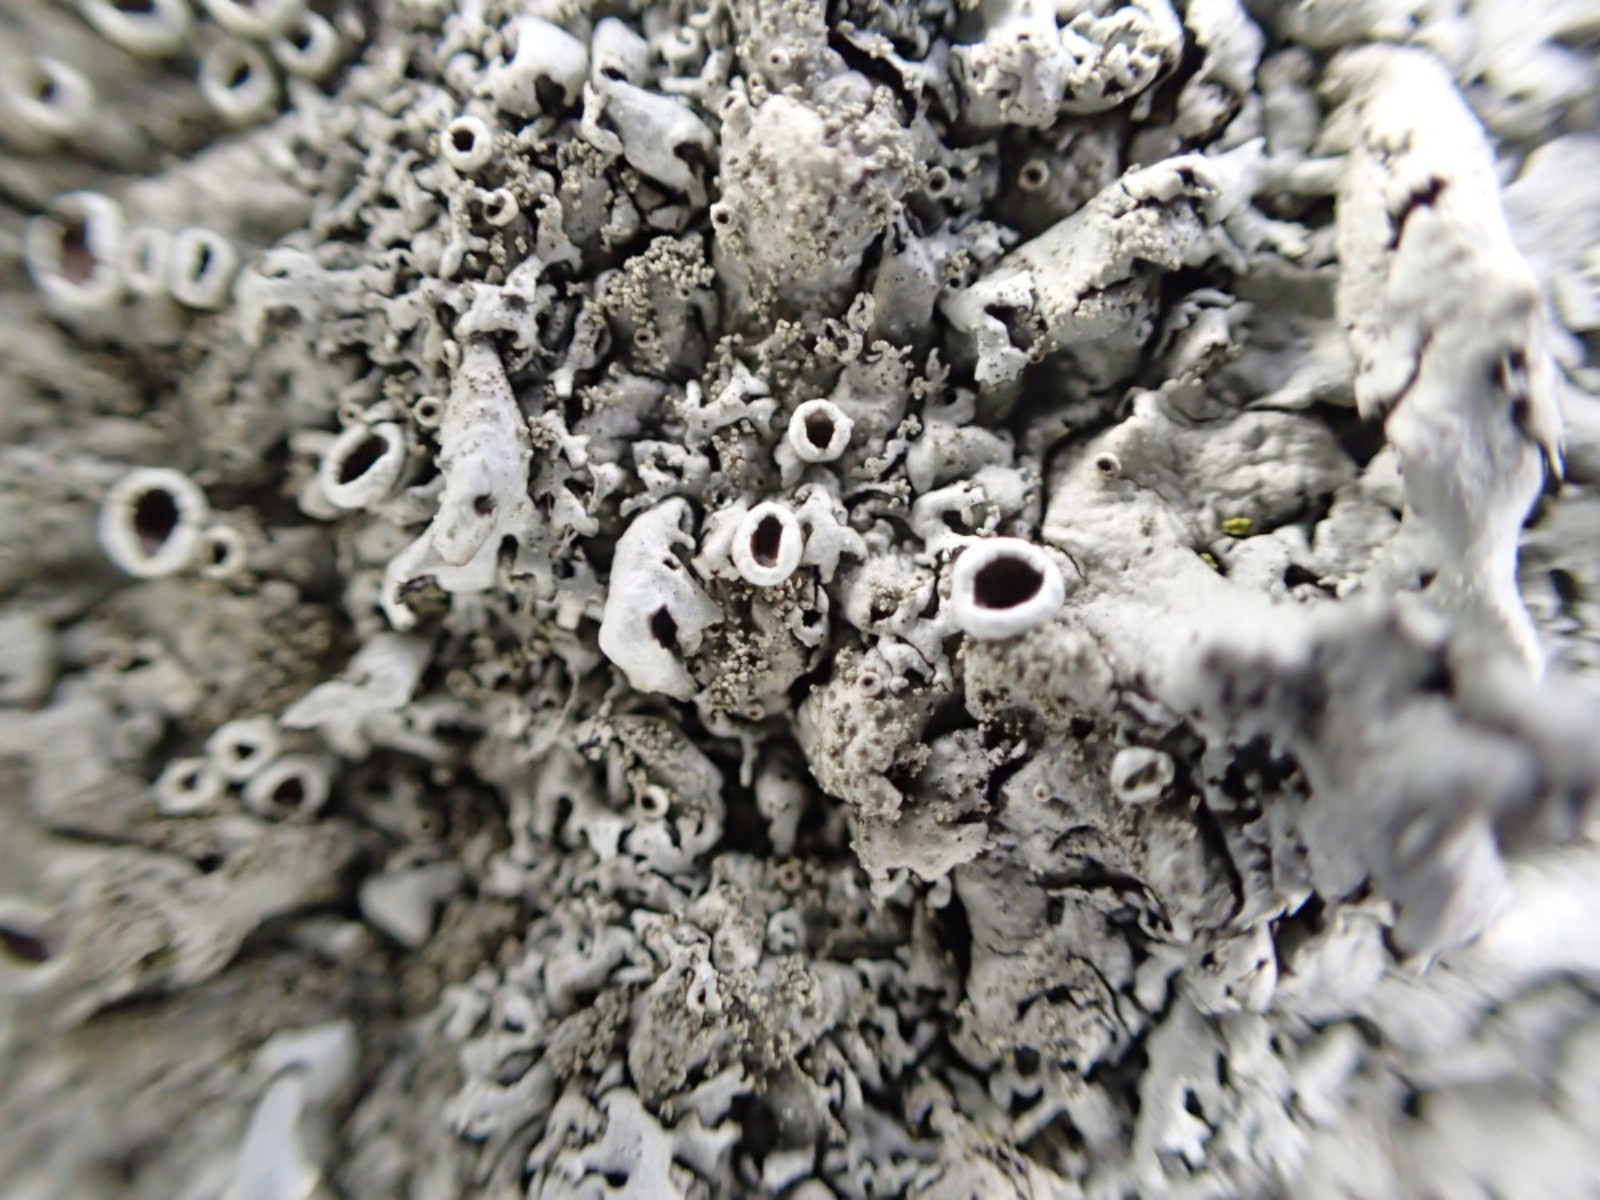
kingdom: Fungi
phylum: Ascomycota
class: Lecanoromycetes
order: Lecanorales
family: Parmeliaceae
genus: Xanthoparmelia
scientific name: Xanthoparmelia conspersa
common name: messing-skållav
